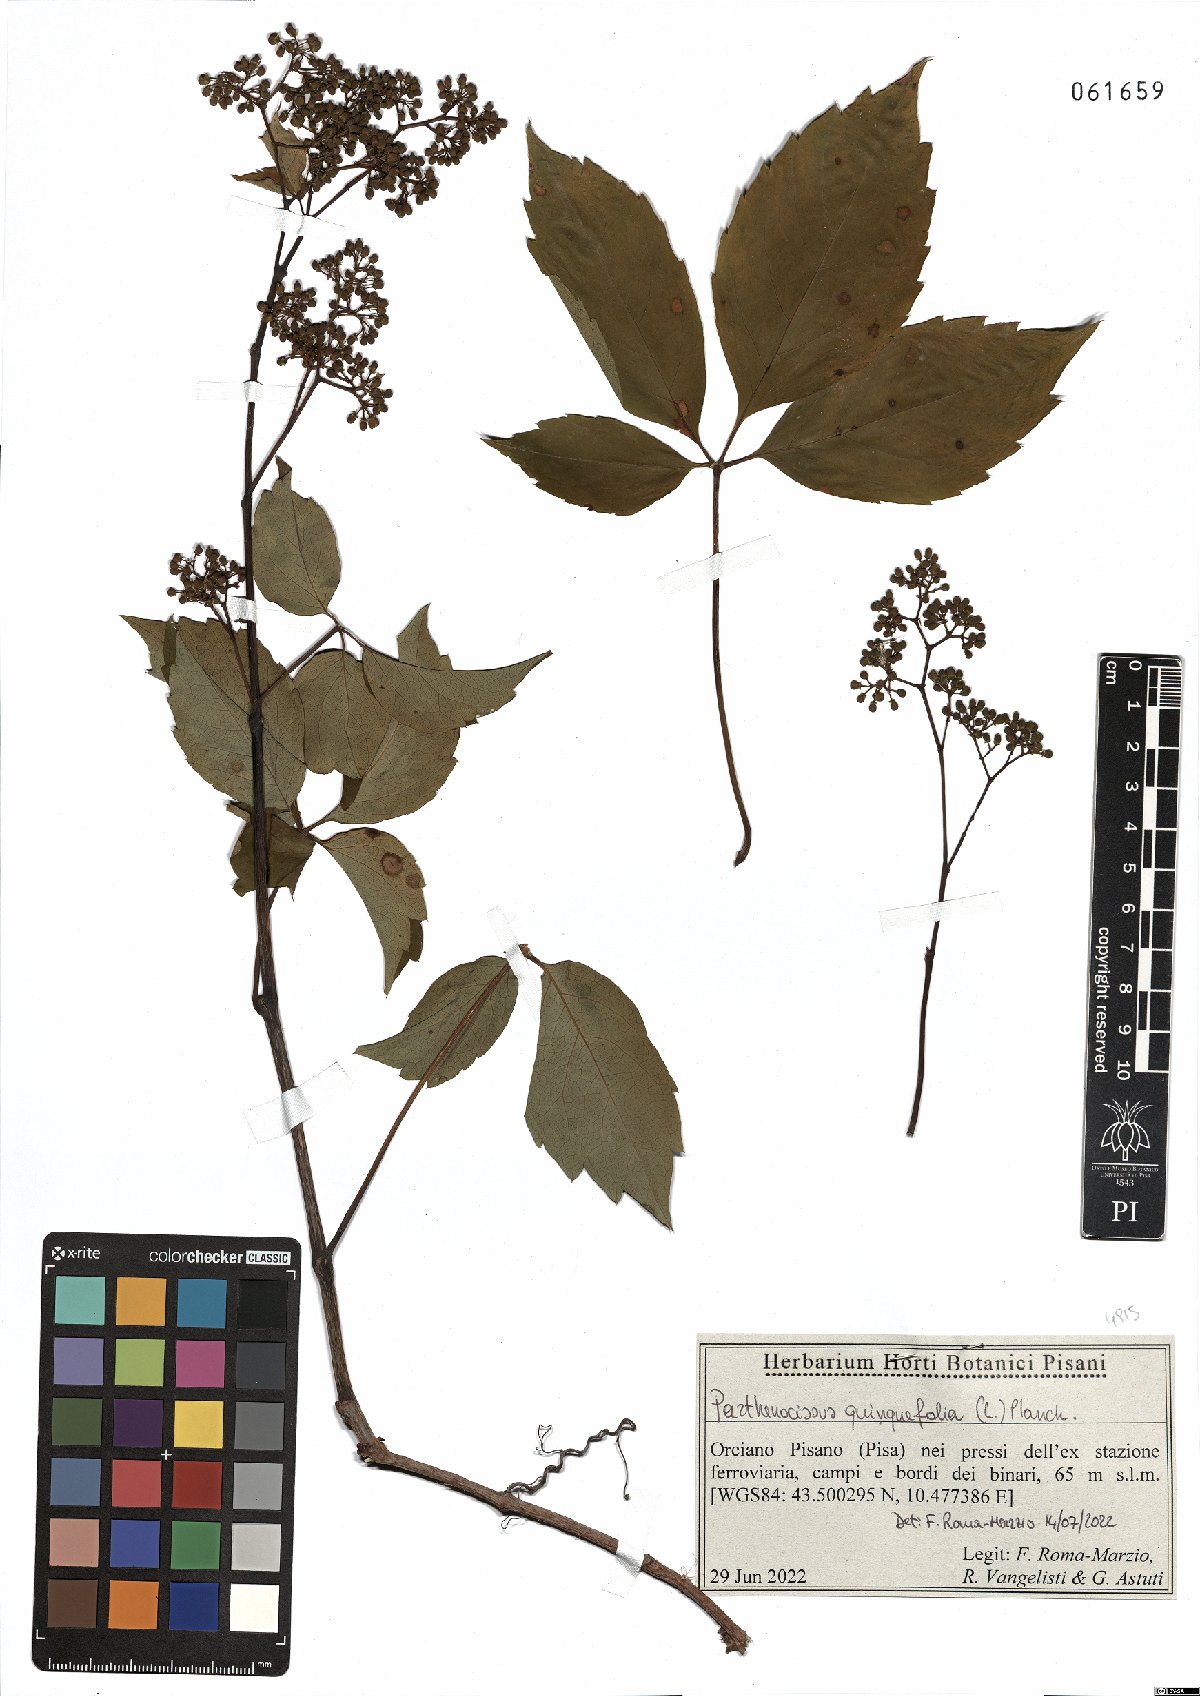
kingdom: Plantae
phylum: Tracheophyta
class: Magnoliopsida
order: Vitales
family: Vitaceae
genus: Parthenocissus
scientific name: Parthenocissus quinquefolia
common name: Virginia-creeper
